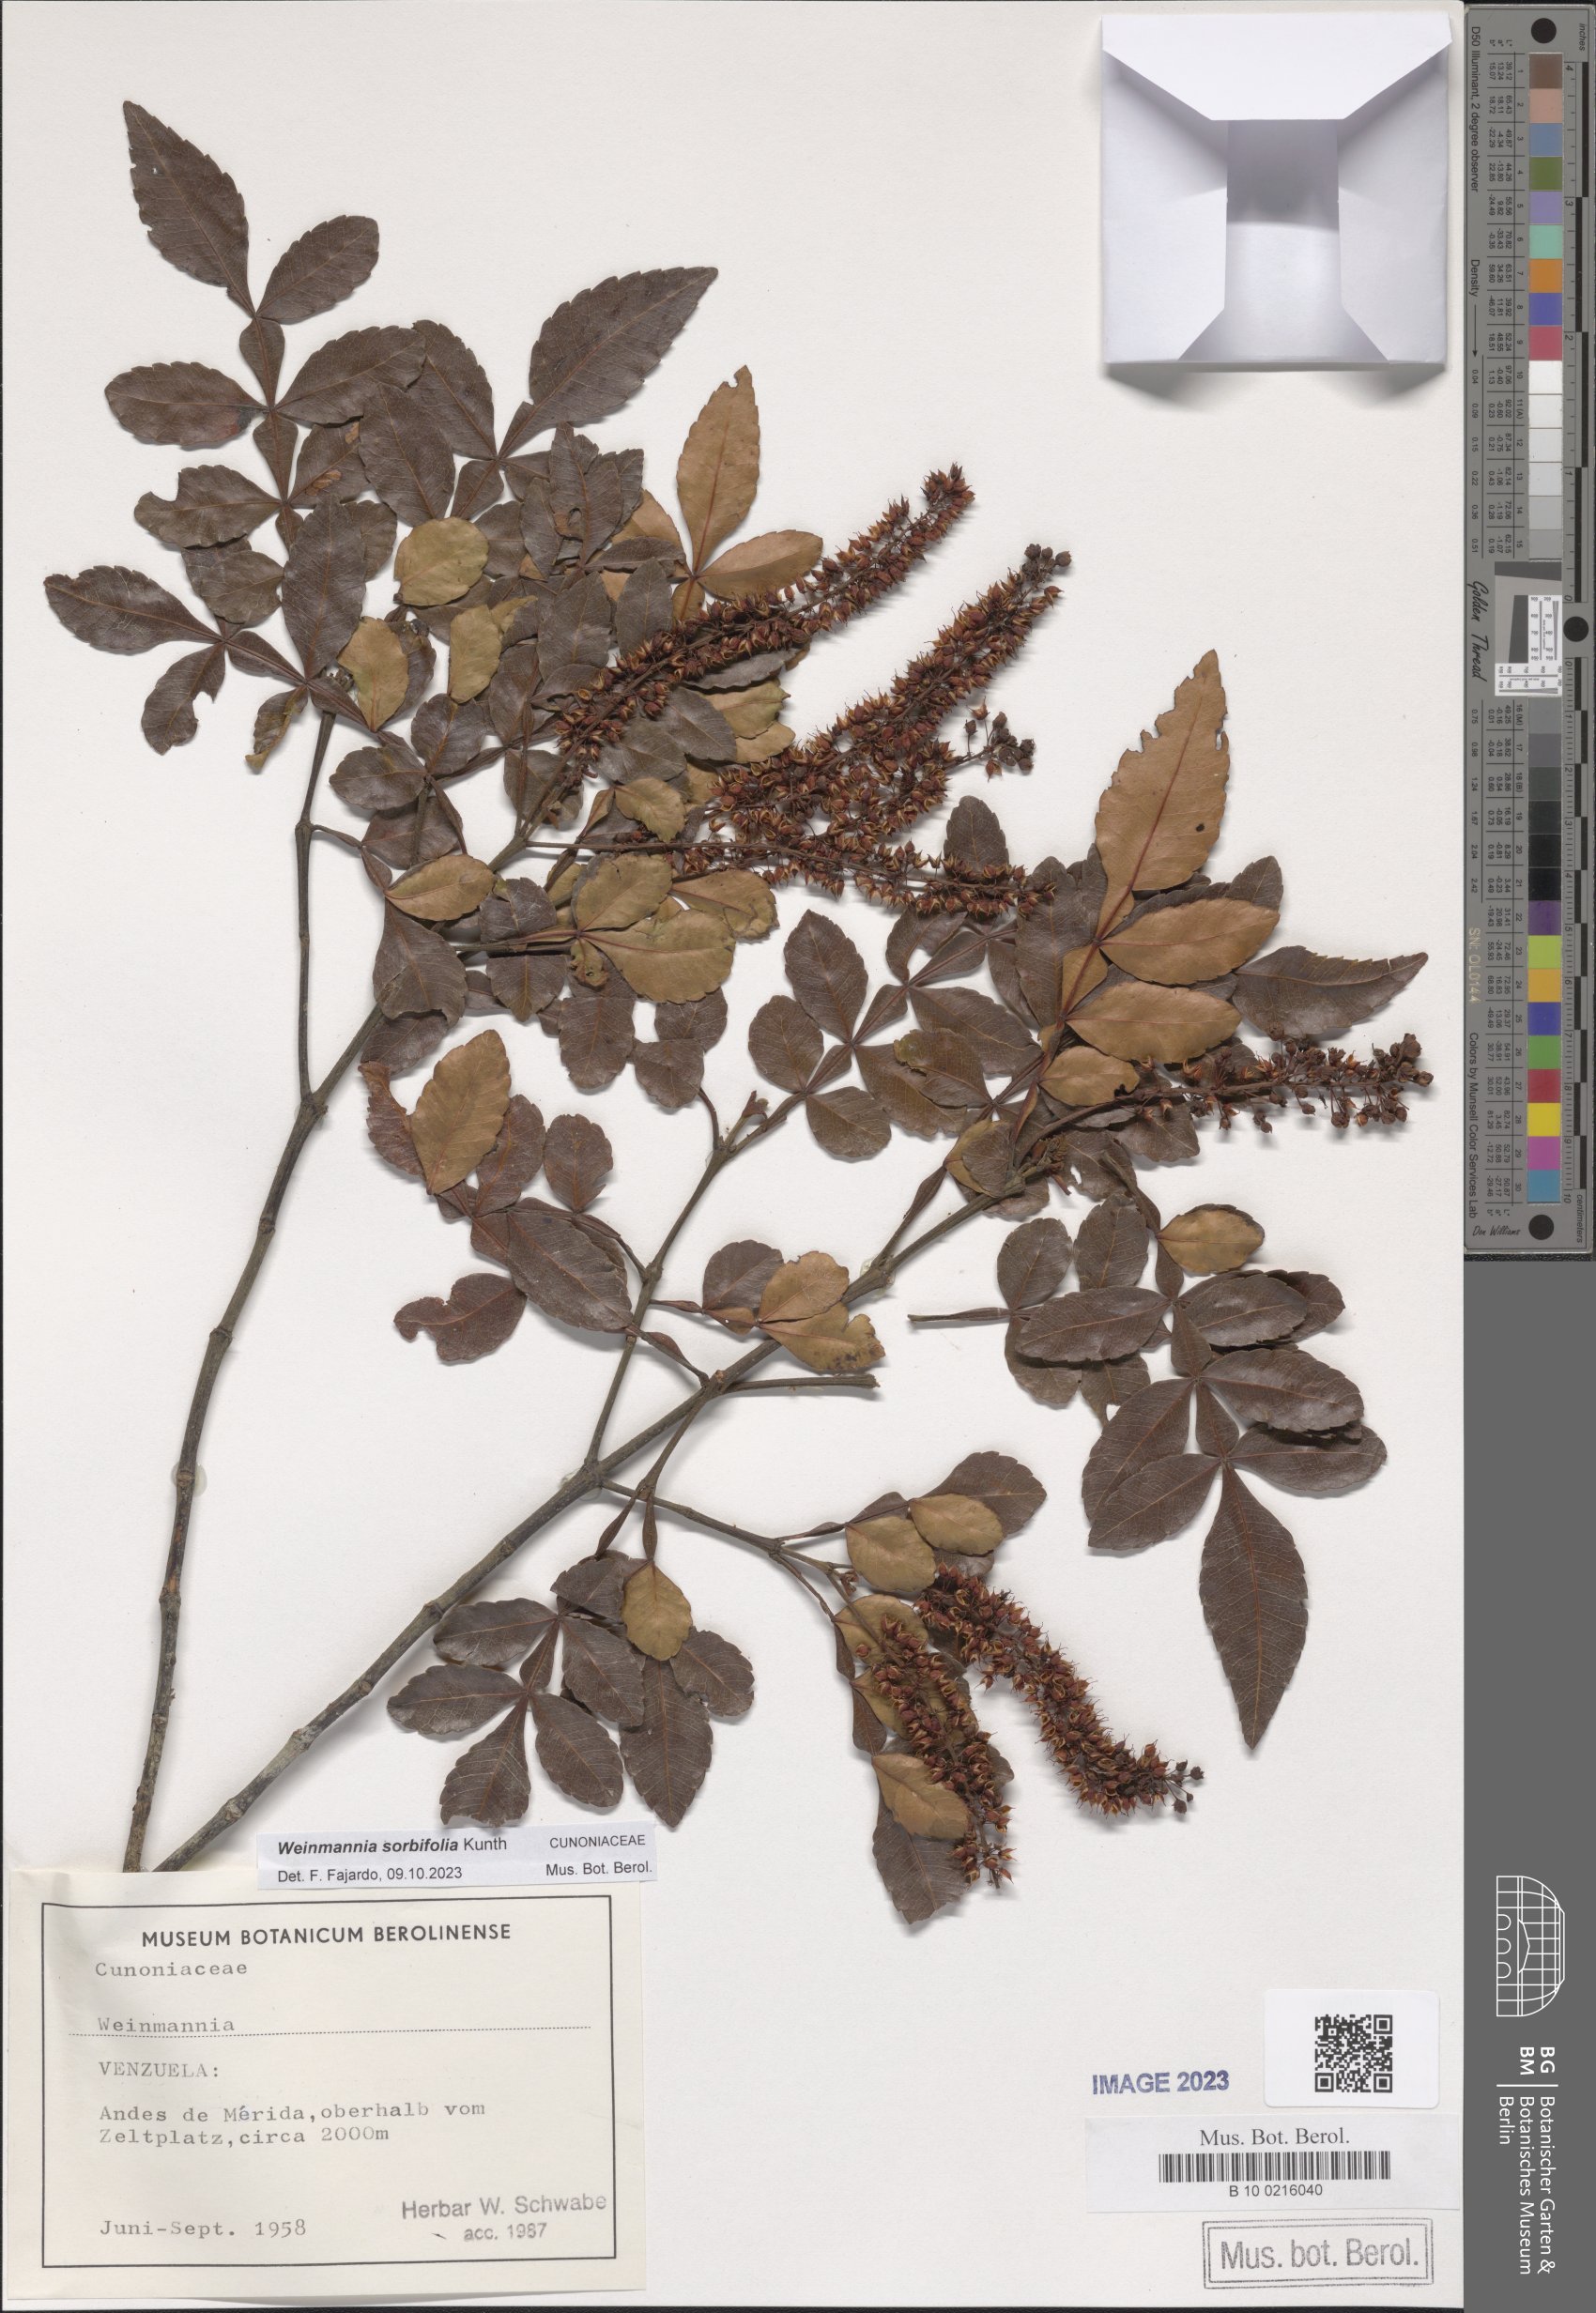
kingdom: Plantae
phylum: Tracheophyta
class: Magnoliopsida
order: Oxalidales
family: Cunoniaceae
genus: Weinmannia
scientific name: Weinmannia sorbifolia
